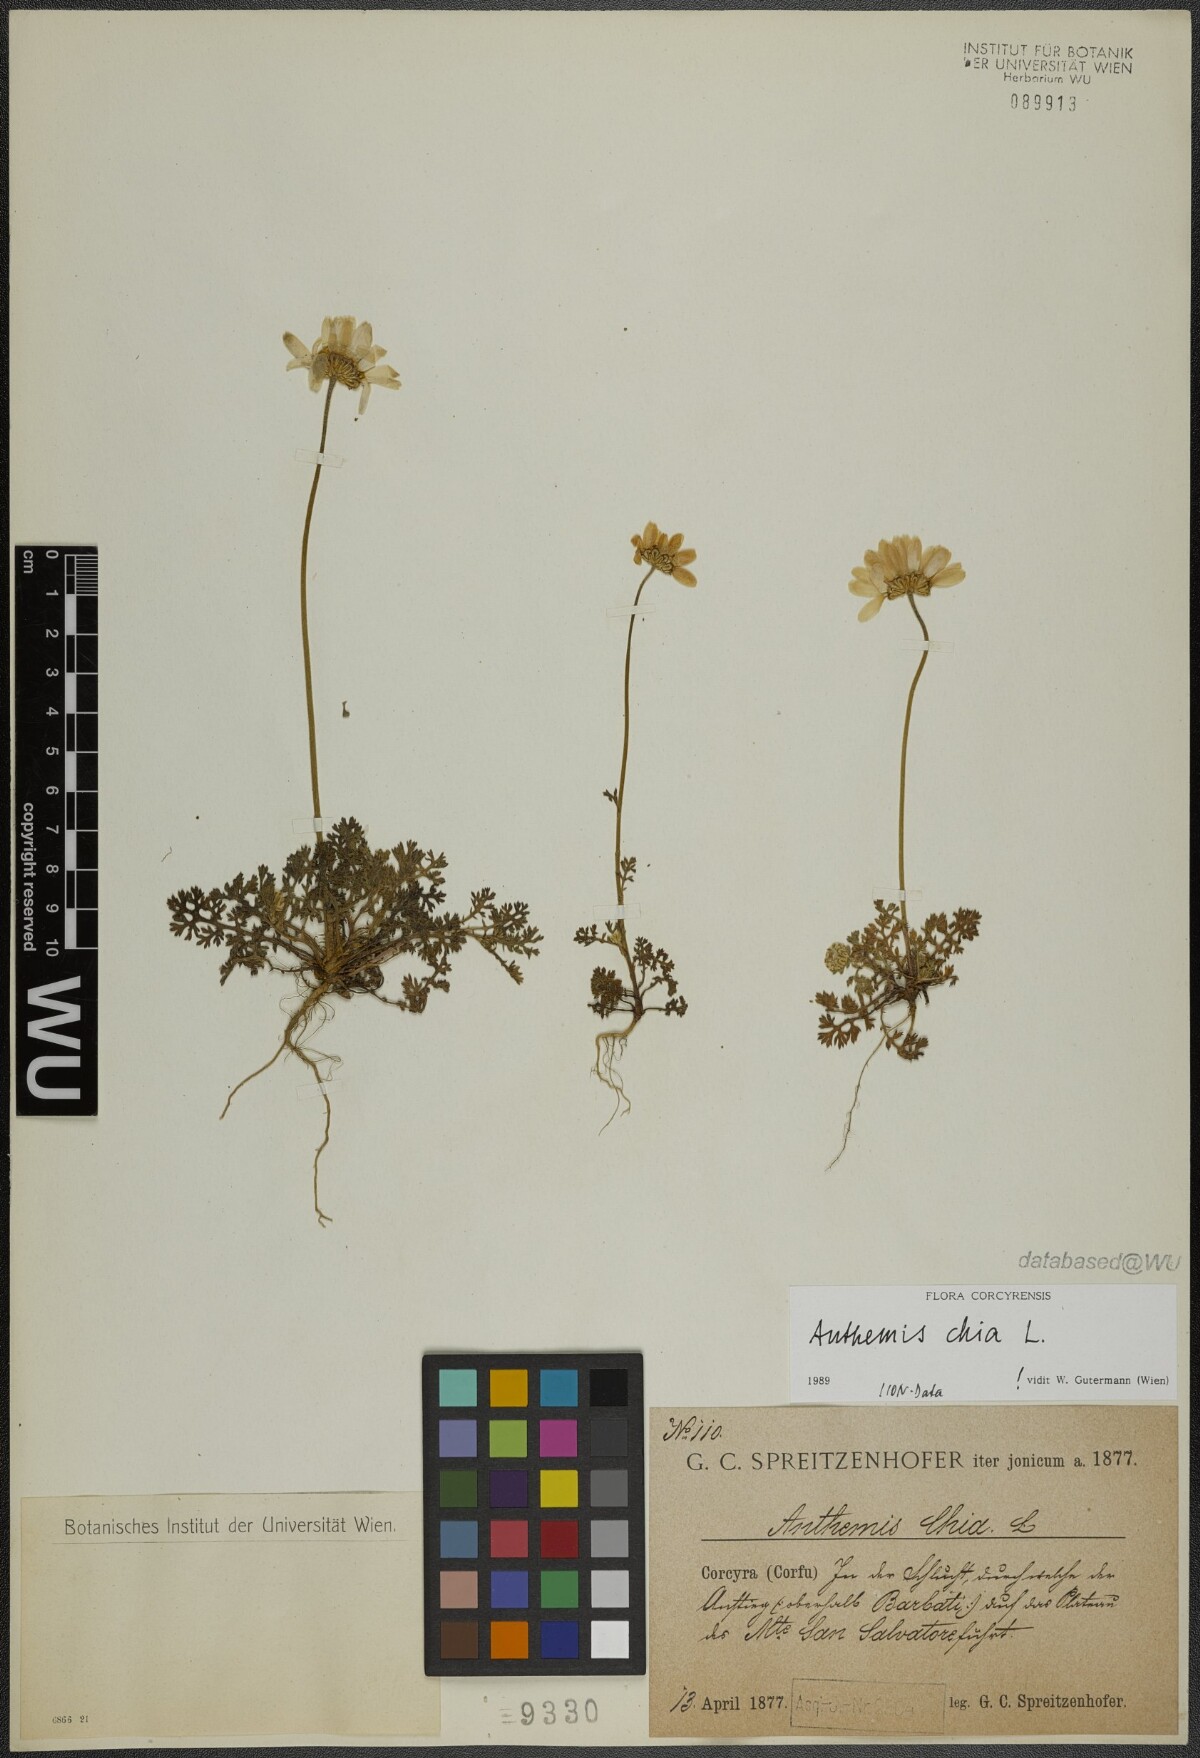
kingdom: Plantae
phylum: Tracheophyta
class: Magnoliopsida
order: Asterales
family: Asteraceae
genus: Anthemis
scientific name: Anthemis chia
